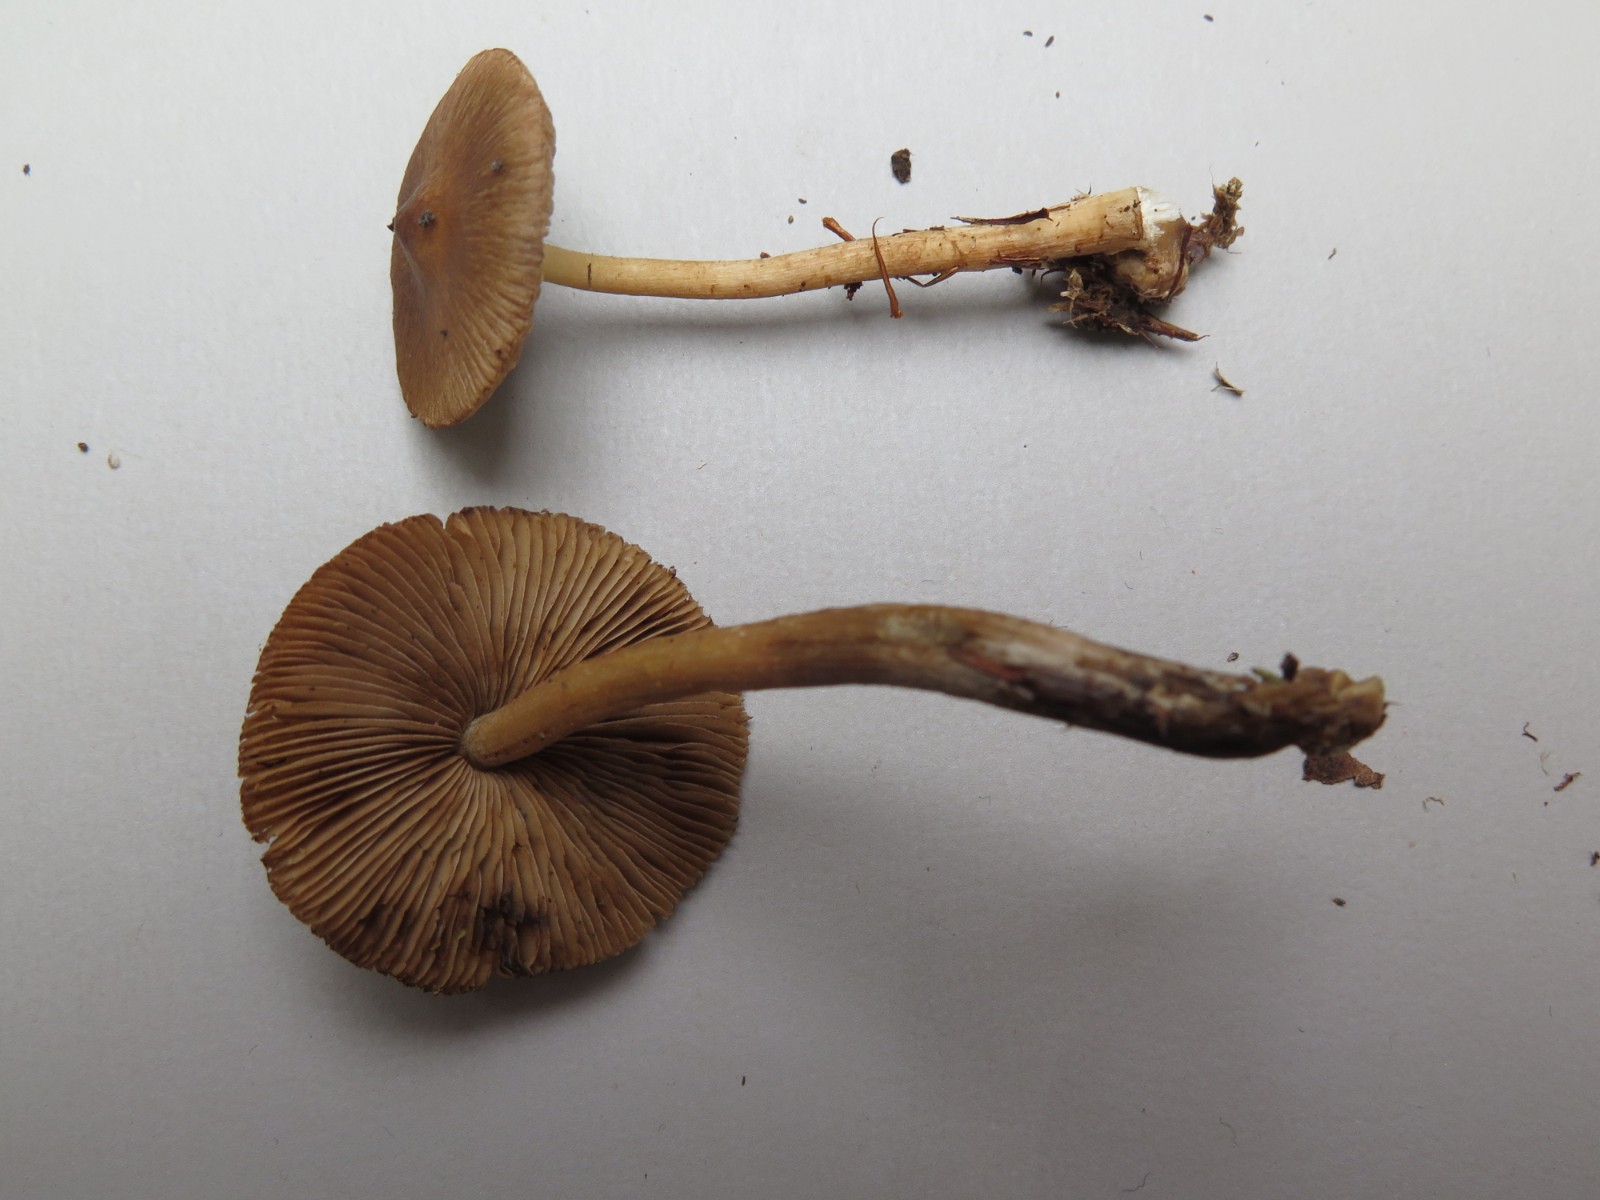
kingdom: Fungi
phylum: Basidiomycota
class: Agaricomycetes
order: Agaricales
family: Inocybaceae
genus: Inocybe
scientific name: Inocybe acuta
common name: papil-trævlhat
